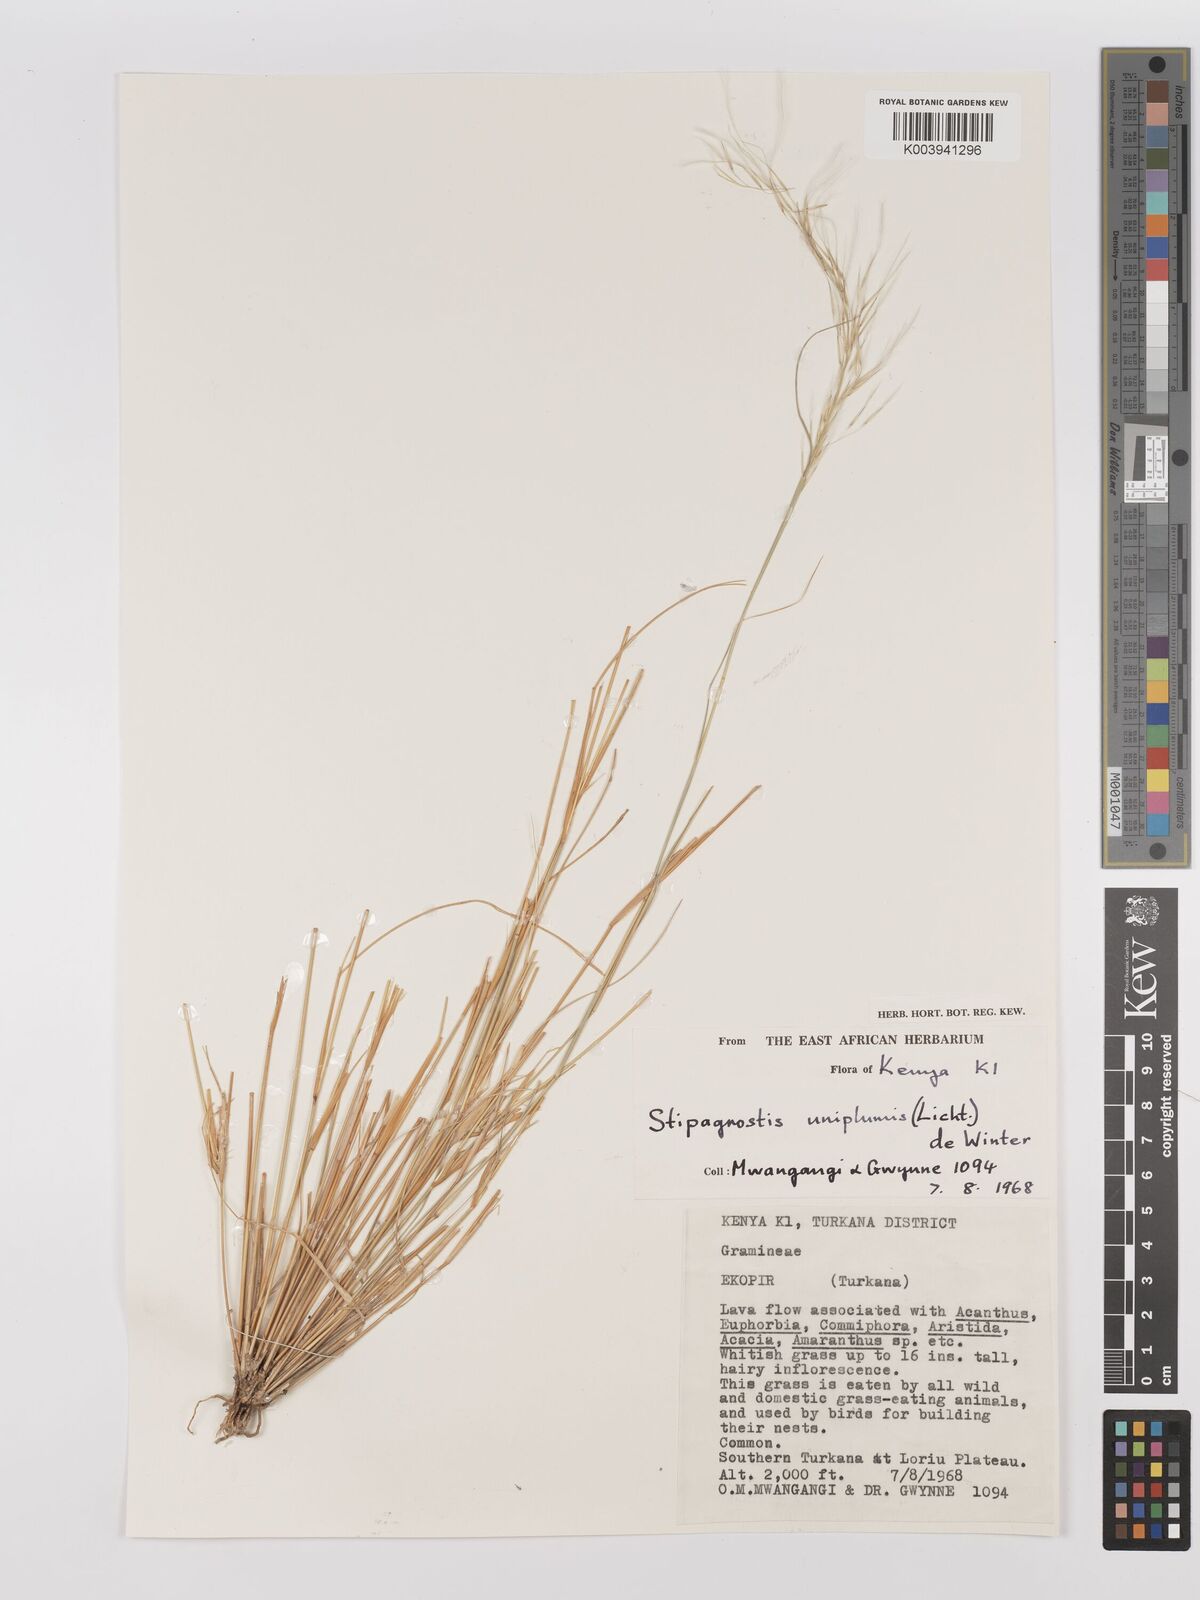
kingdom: Plantae
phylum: Tracheophyta
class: Liliopsida
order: Poales
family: Poaceae
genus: Stipagrostis
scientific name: Stipagrostis uniplumis
